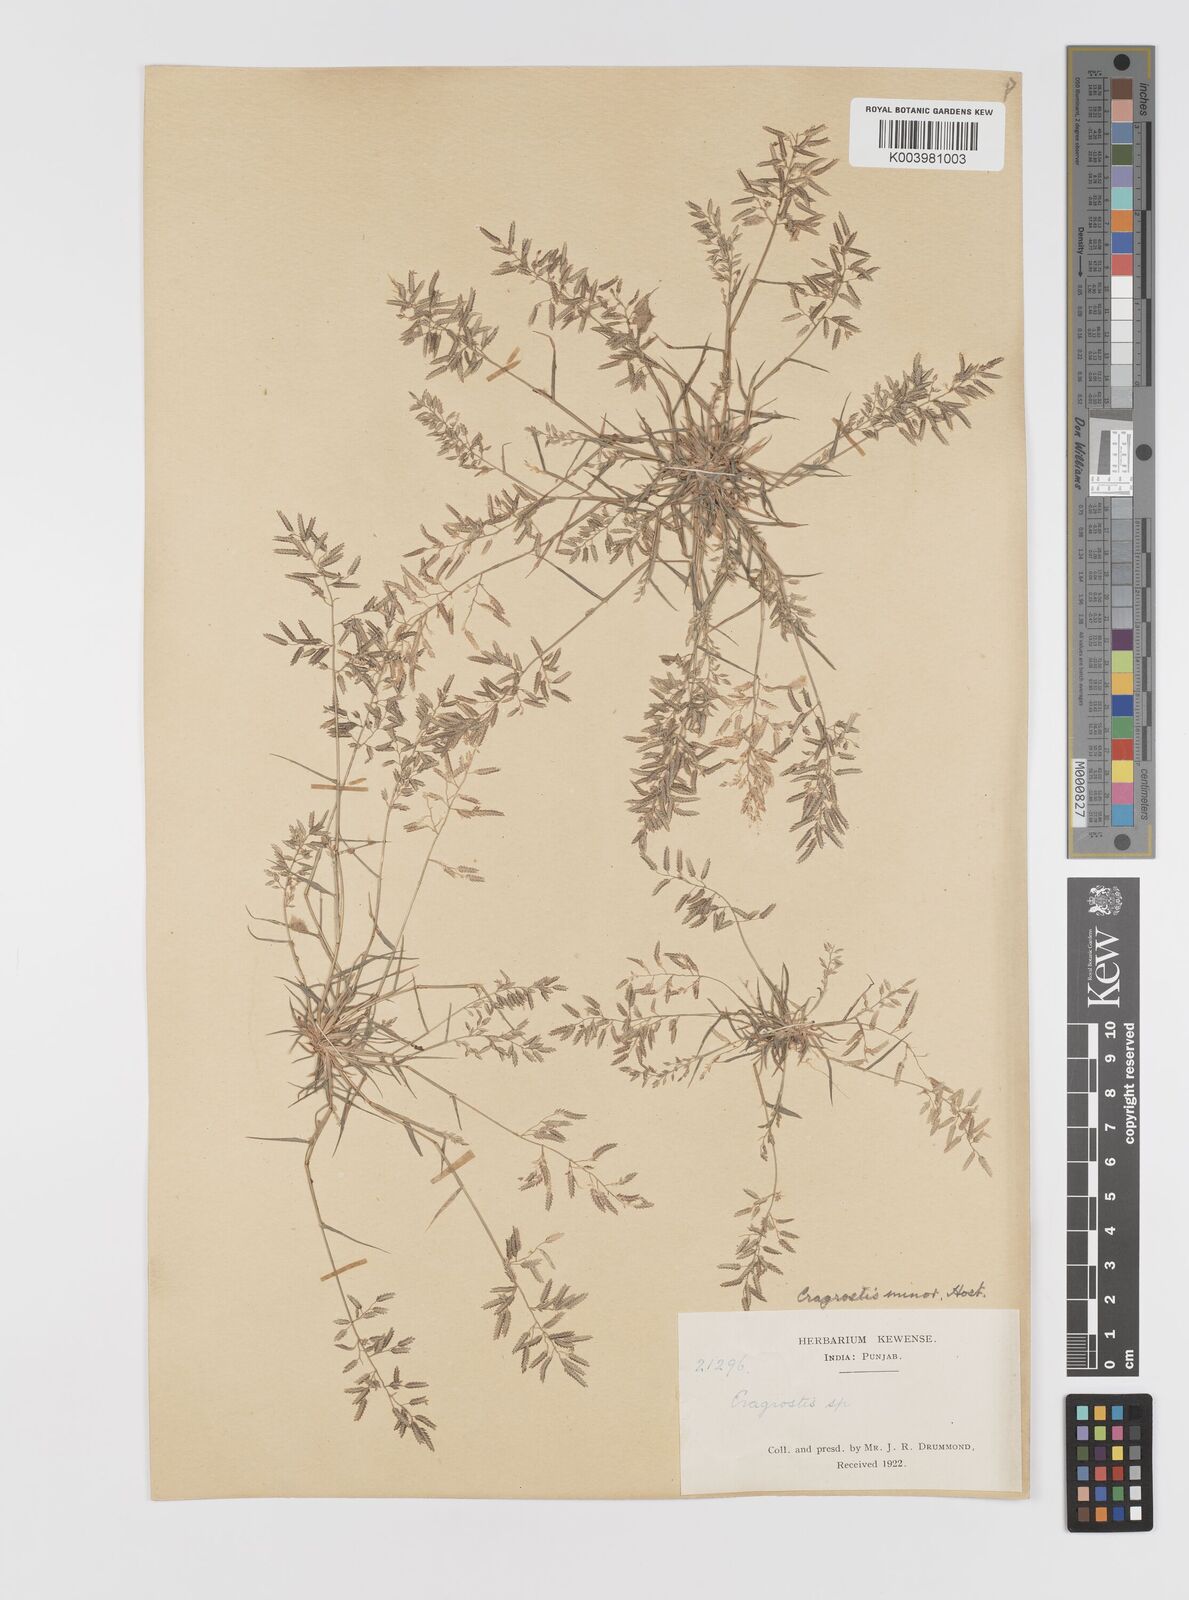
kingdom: Plantae
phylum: Tracheophyta
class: Liliopsida
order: Poales
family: Poaceae
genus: Eragrostis
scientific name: Eragrostis minor
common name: Small love-grass
